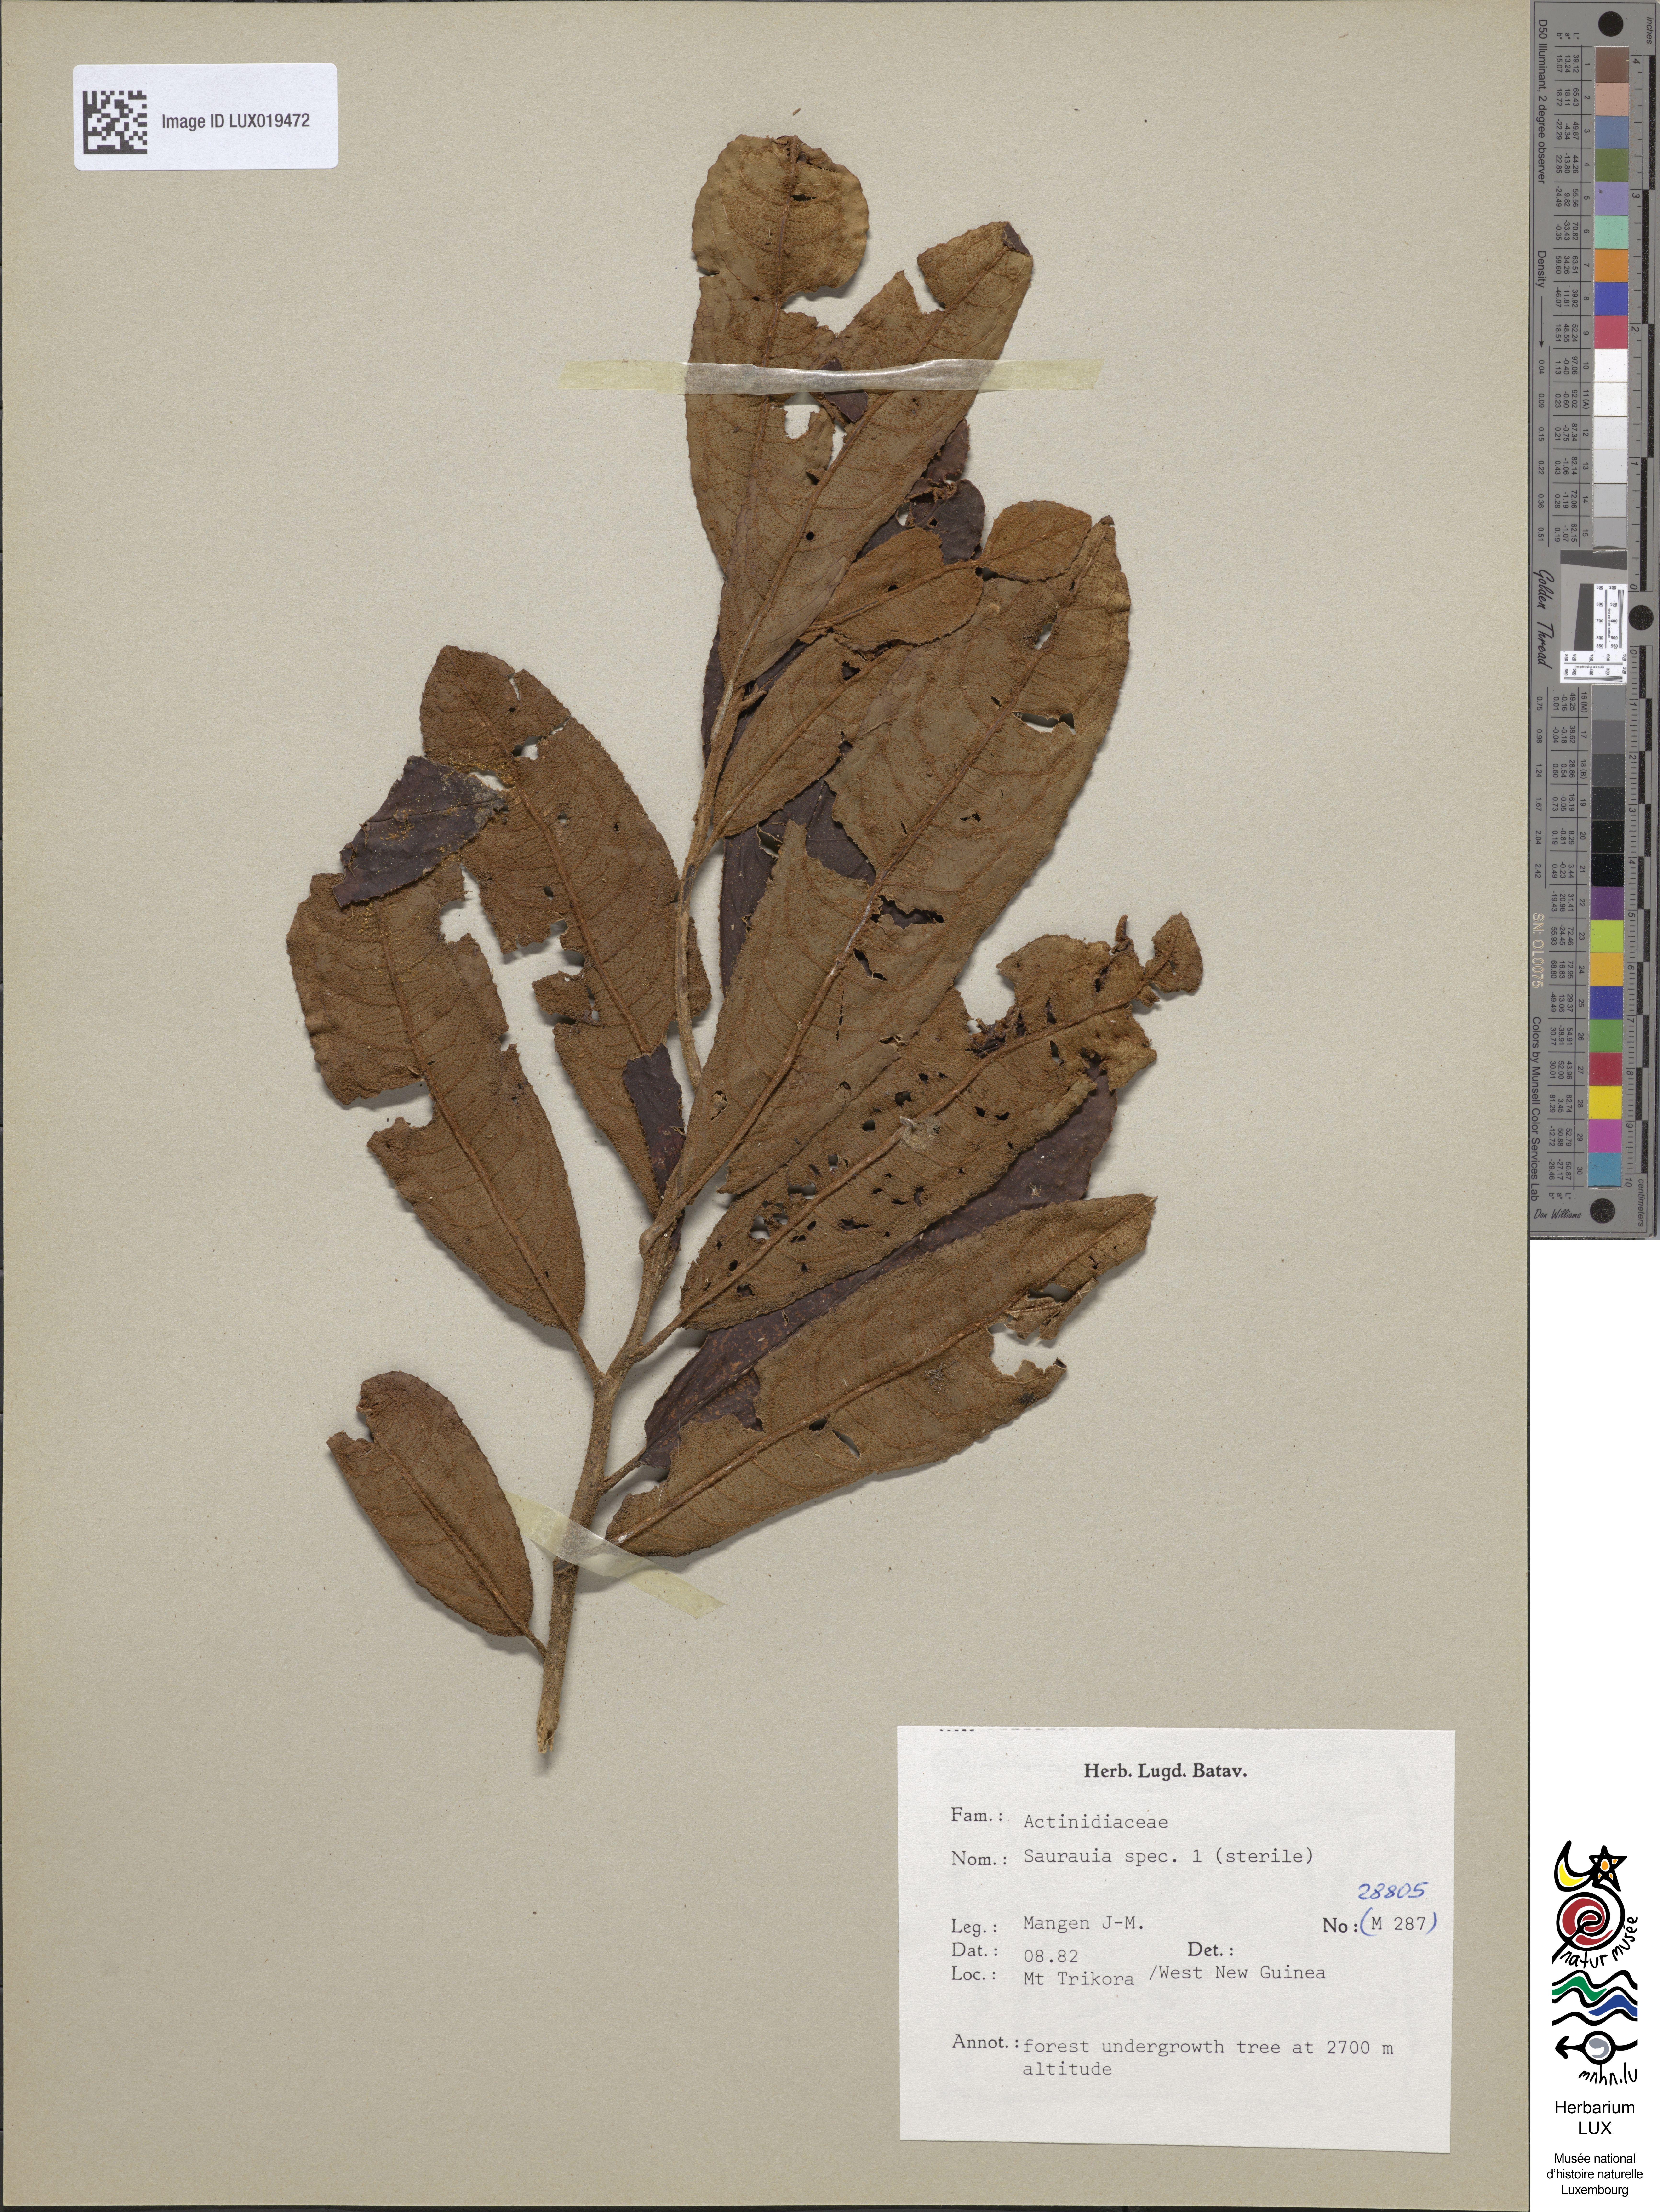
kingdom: Plantae
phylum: Tracheophyta
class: Magnoliopsida
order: Ericales
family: Actinidiaceae
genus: Saurauia
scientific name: Saurauia
